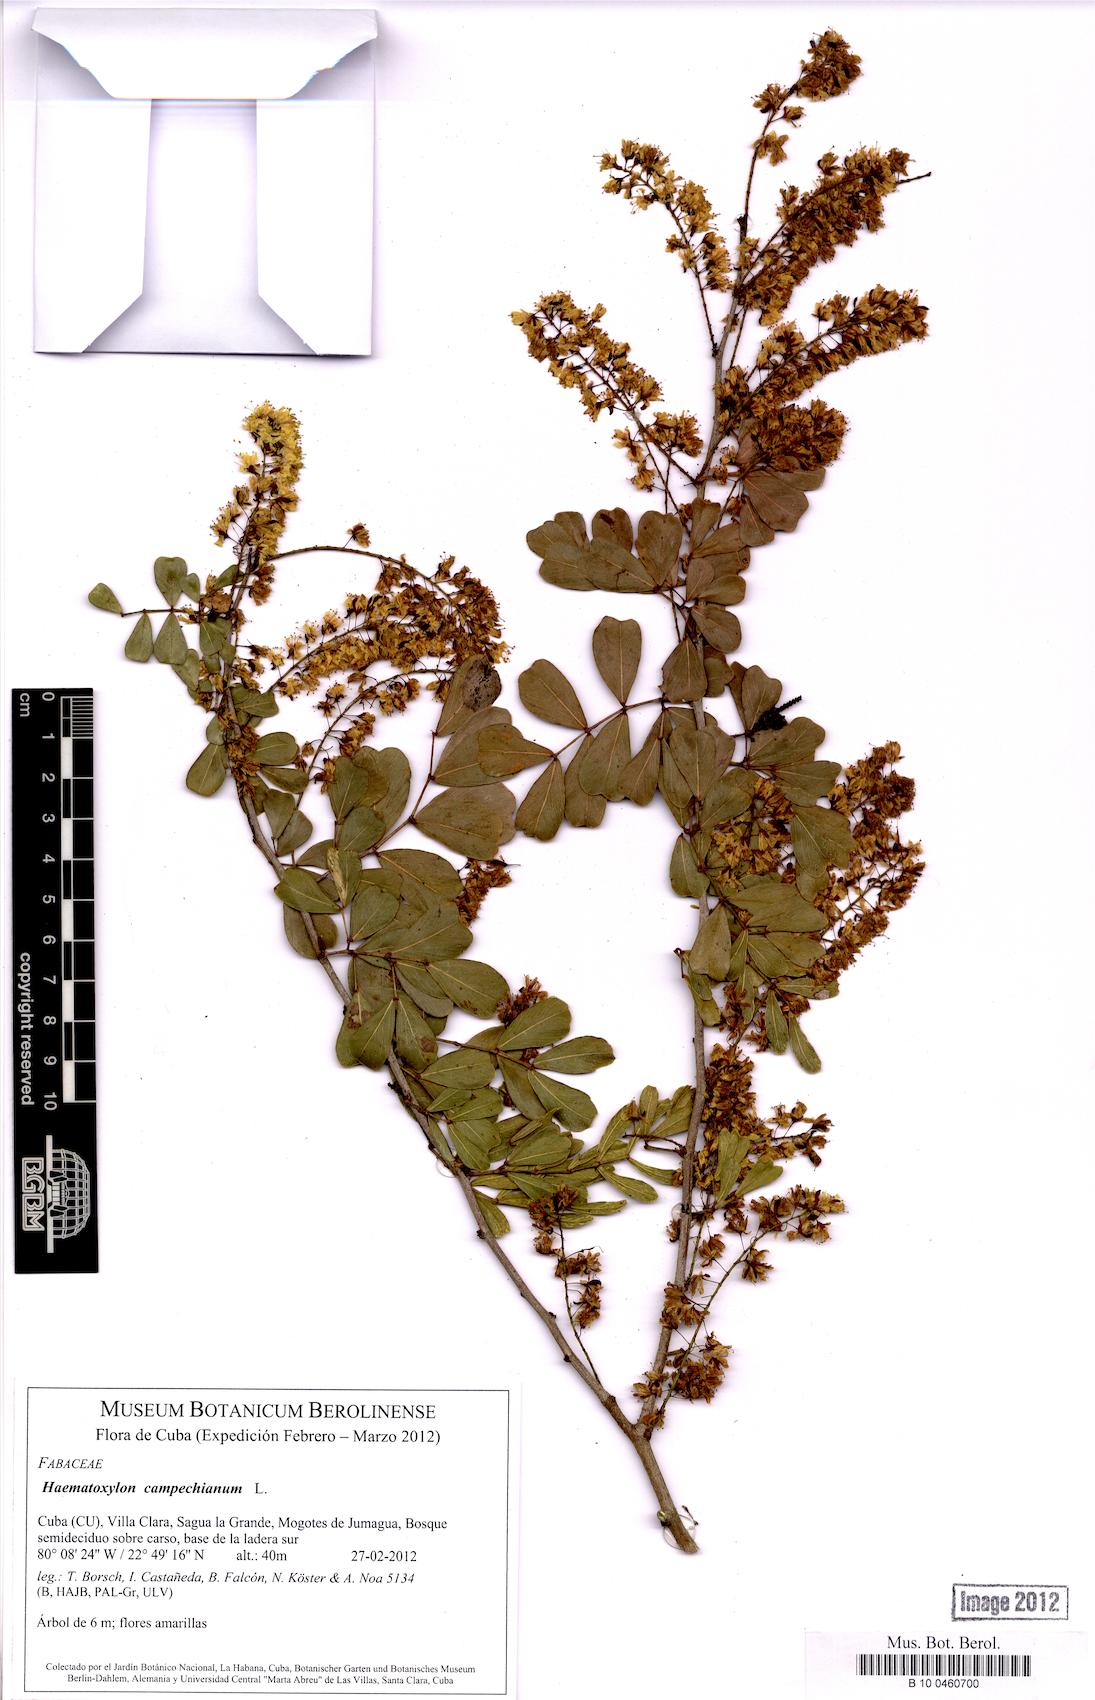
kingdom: Plantae
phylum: Tracheophyta
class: Magnoliopsida
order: Fabales
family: Fabaceae
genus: Haematoxylum
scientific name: Haematoxylum campechianum
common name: Logwood
